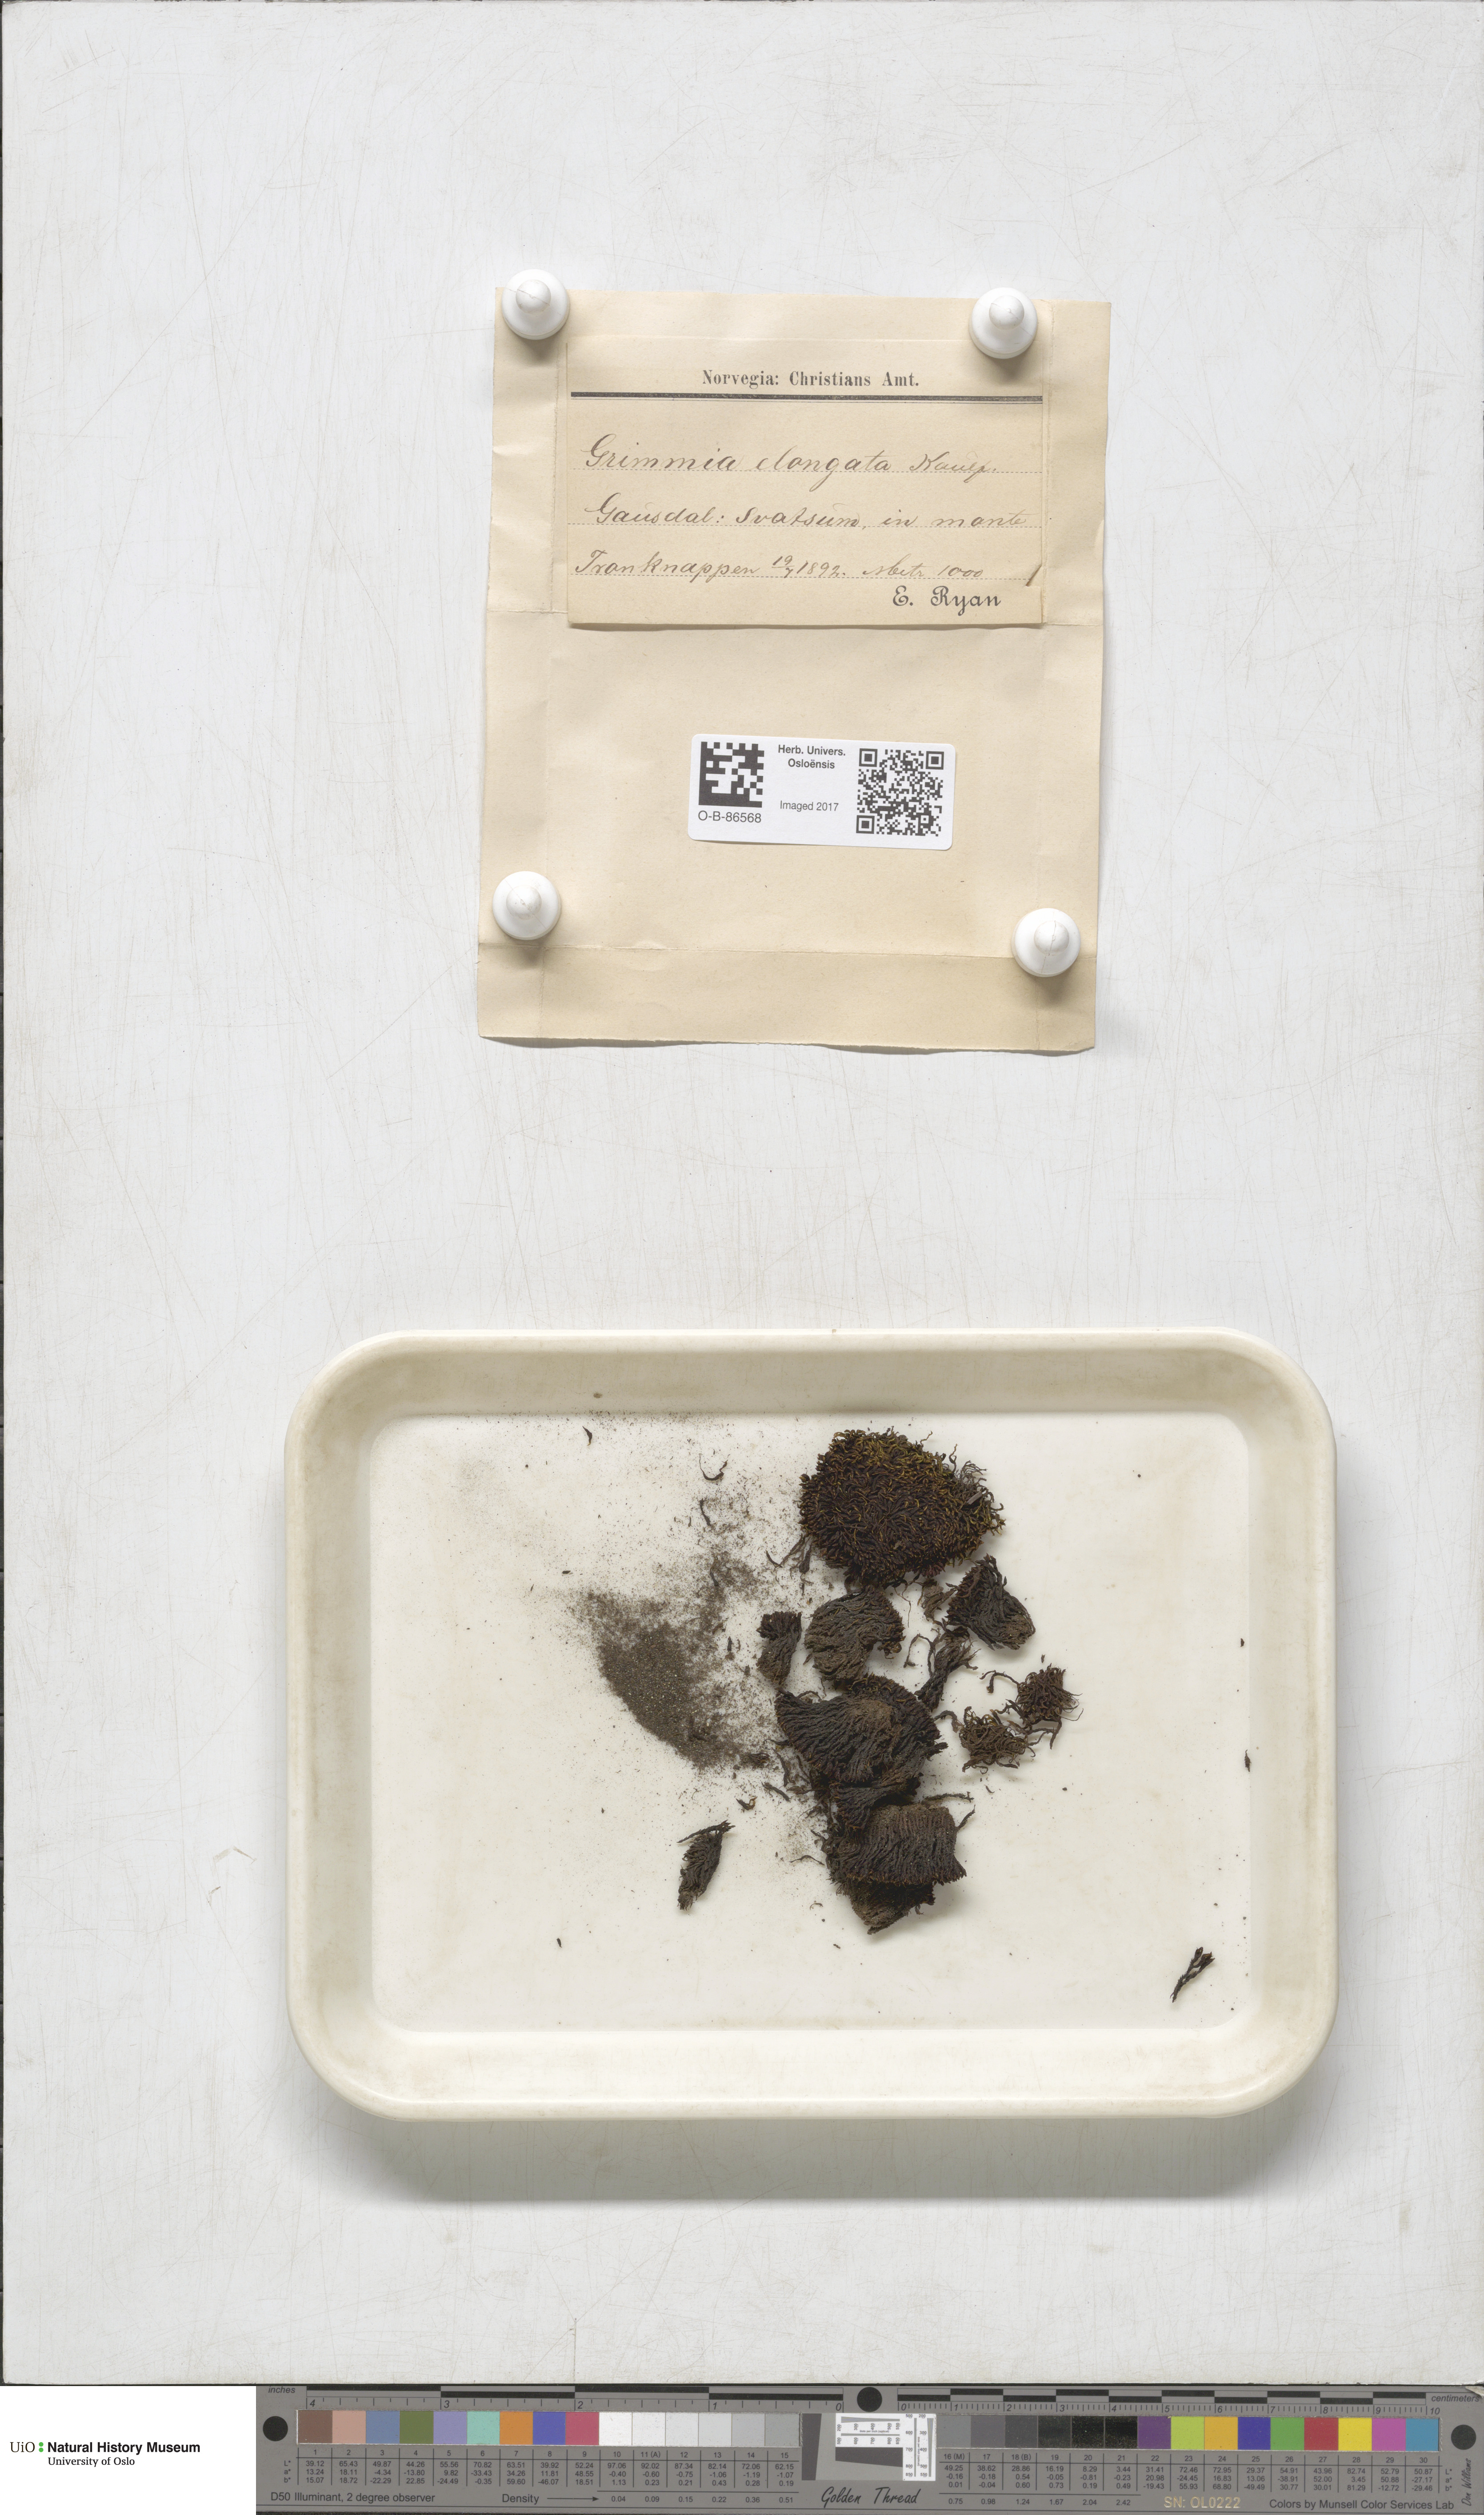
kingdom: Plantae
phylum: Bryophyta
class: Bryopsida
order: Grimmiales
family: Grimmiaceae
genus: Grimmia
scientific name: Grimmia elongata
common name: Brown grimmia
